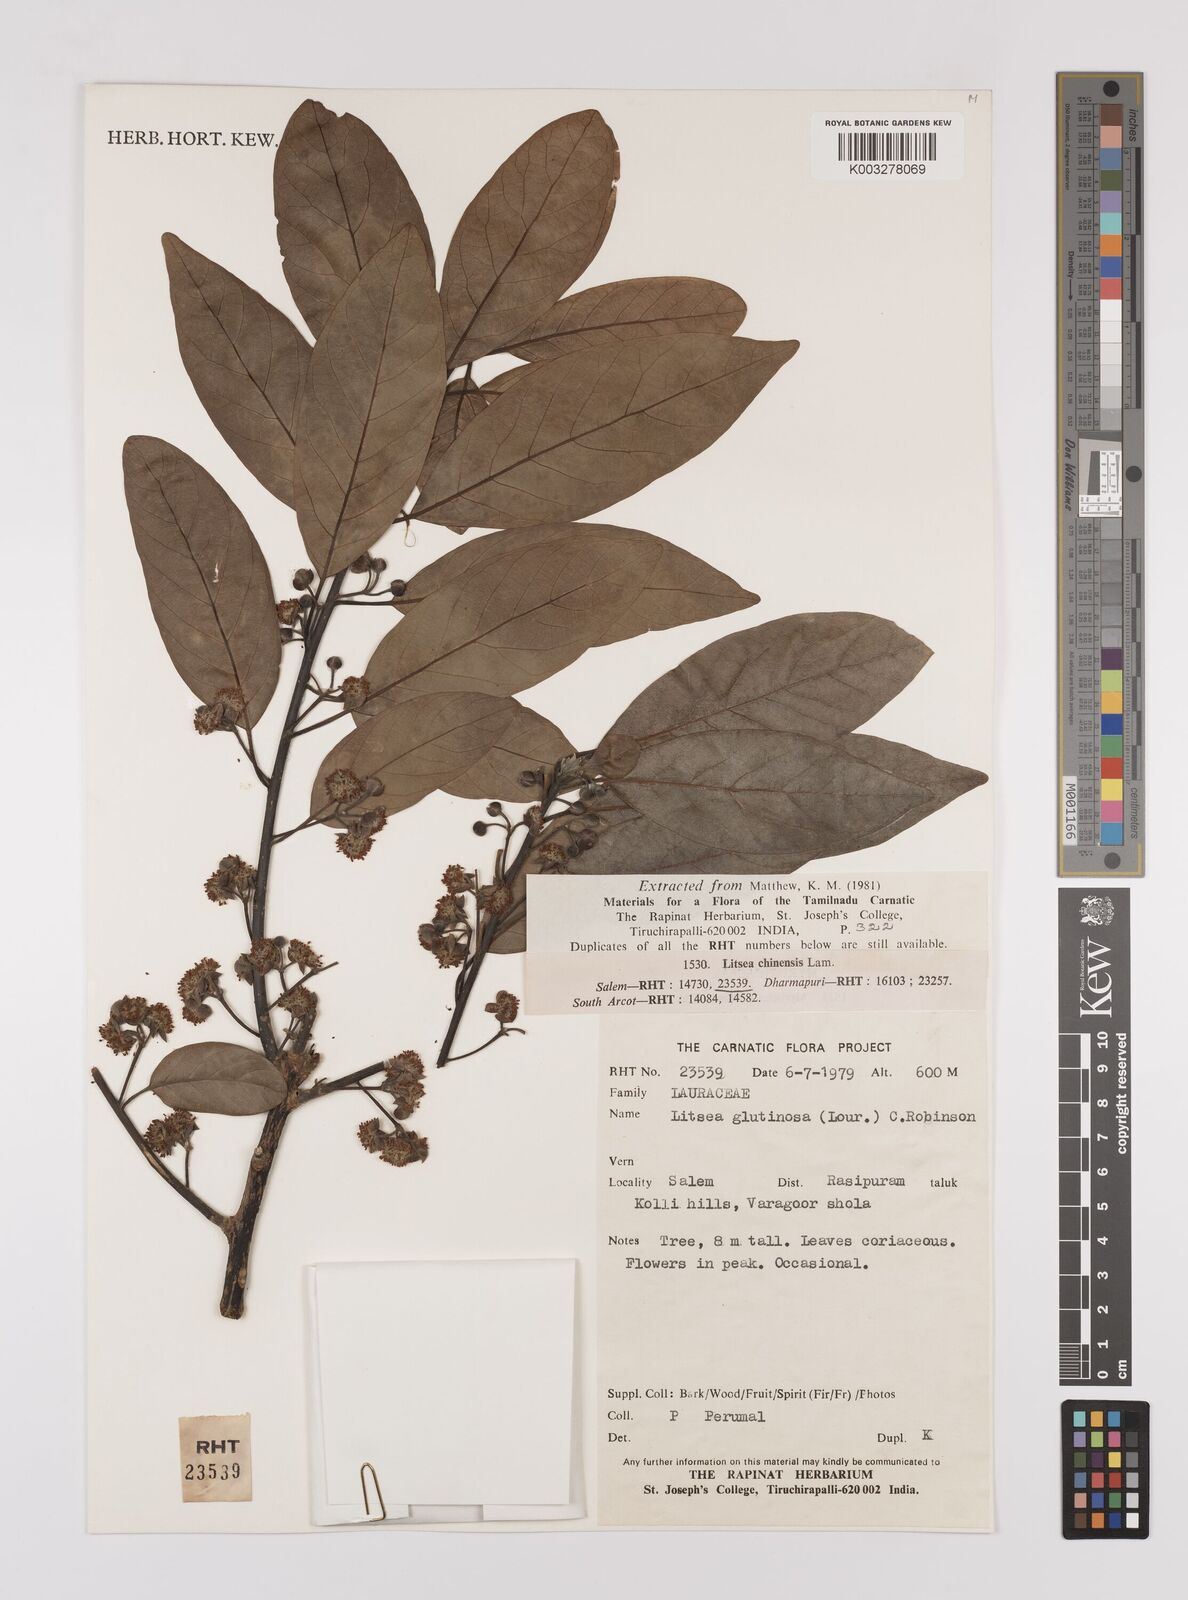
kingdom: Plantae
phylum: Tracheophyta
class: Magnoliopsida
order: Laurales
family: Lauraceae
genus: Litsea
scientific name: Litsea glutinosa
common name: Indian-laurel
